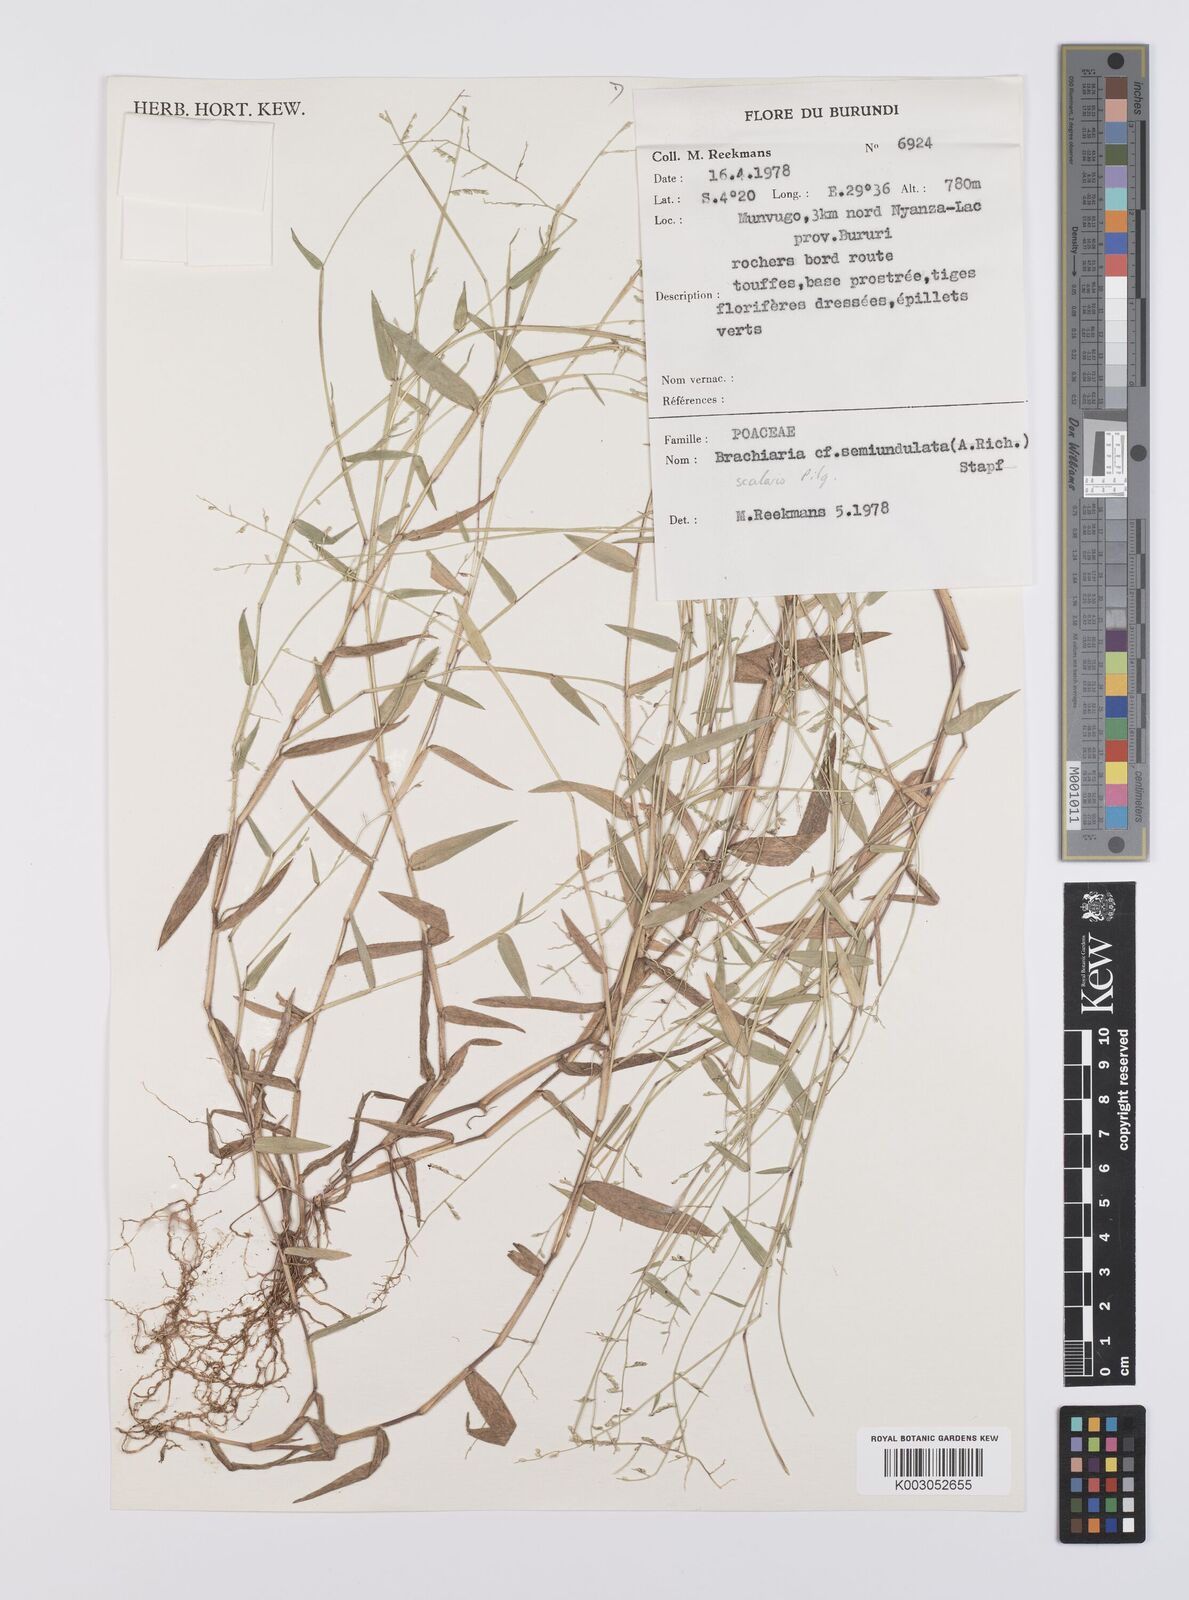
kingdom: Plantae
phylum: Tracheophyta
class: Liliopsida
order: Poales
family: Poaceae
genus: Urochloa
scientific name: Urochloa comata
